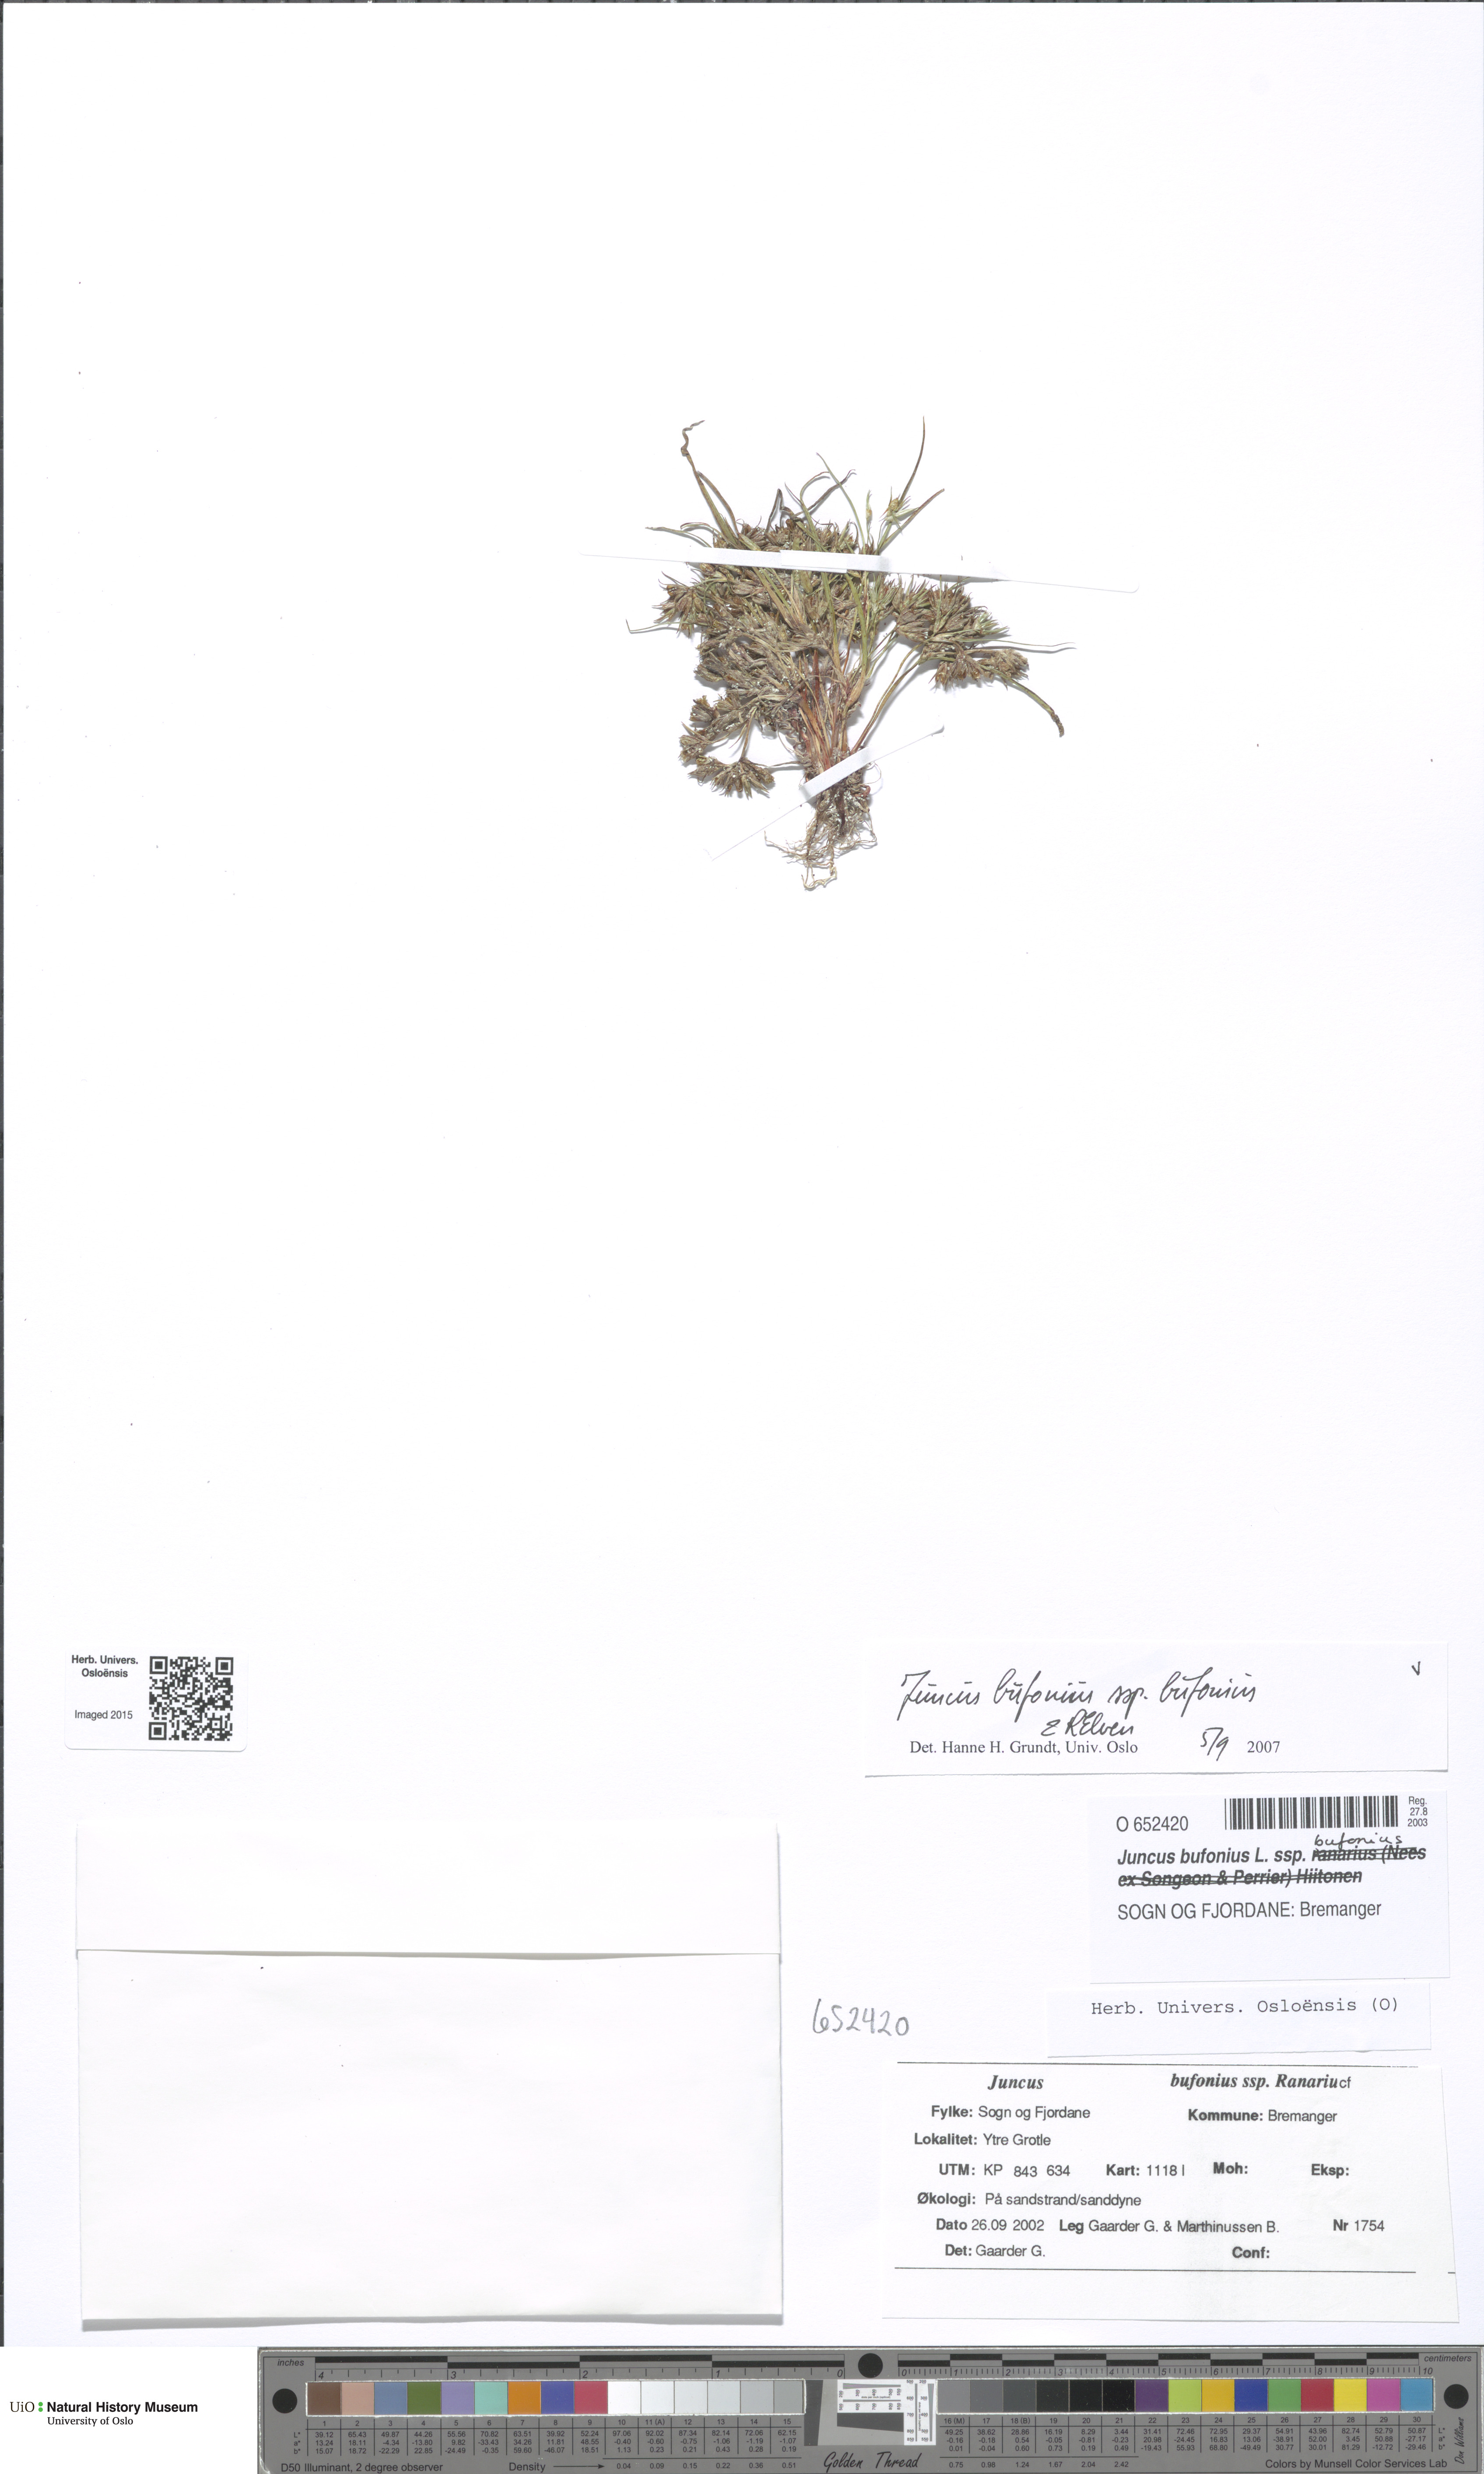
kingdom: Plantae
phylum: Tracheophyta
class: Liliopsida
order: Poales
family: Juncaceae
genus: Juncus
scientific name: Juncus bufonius
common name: Toad rush
